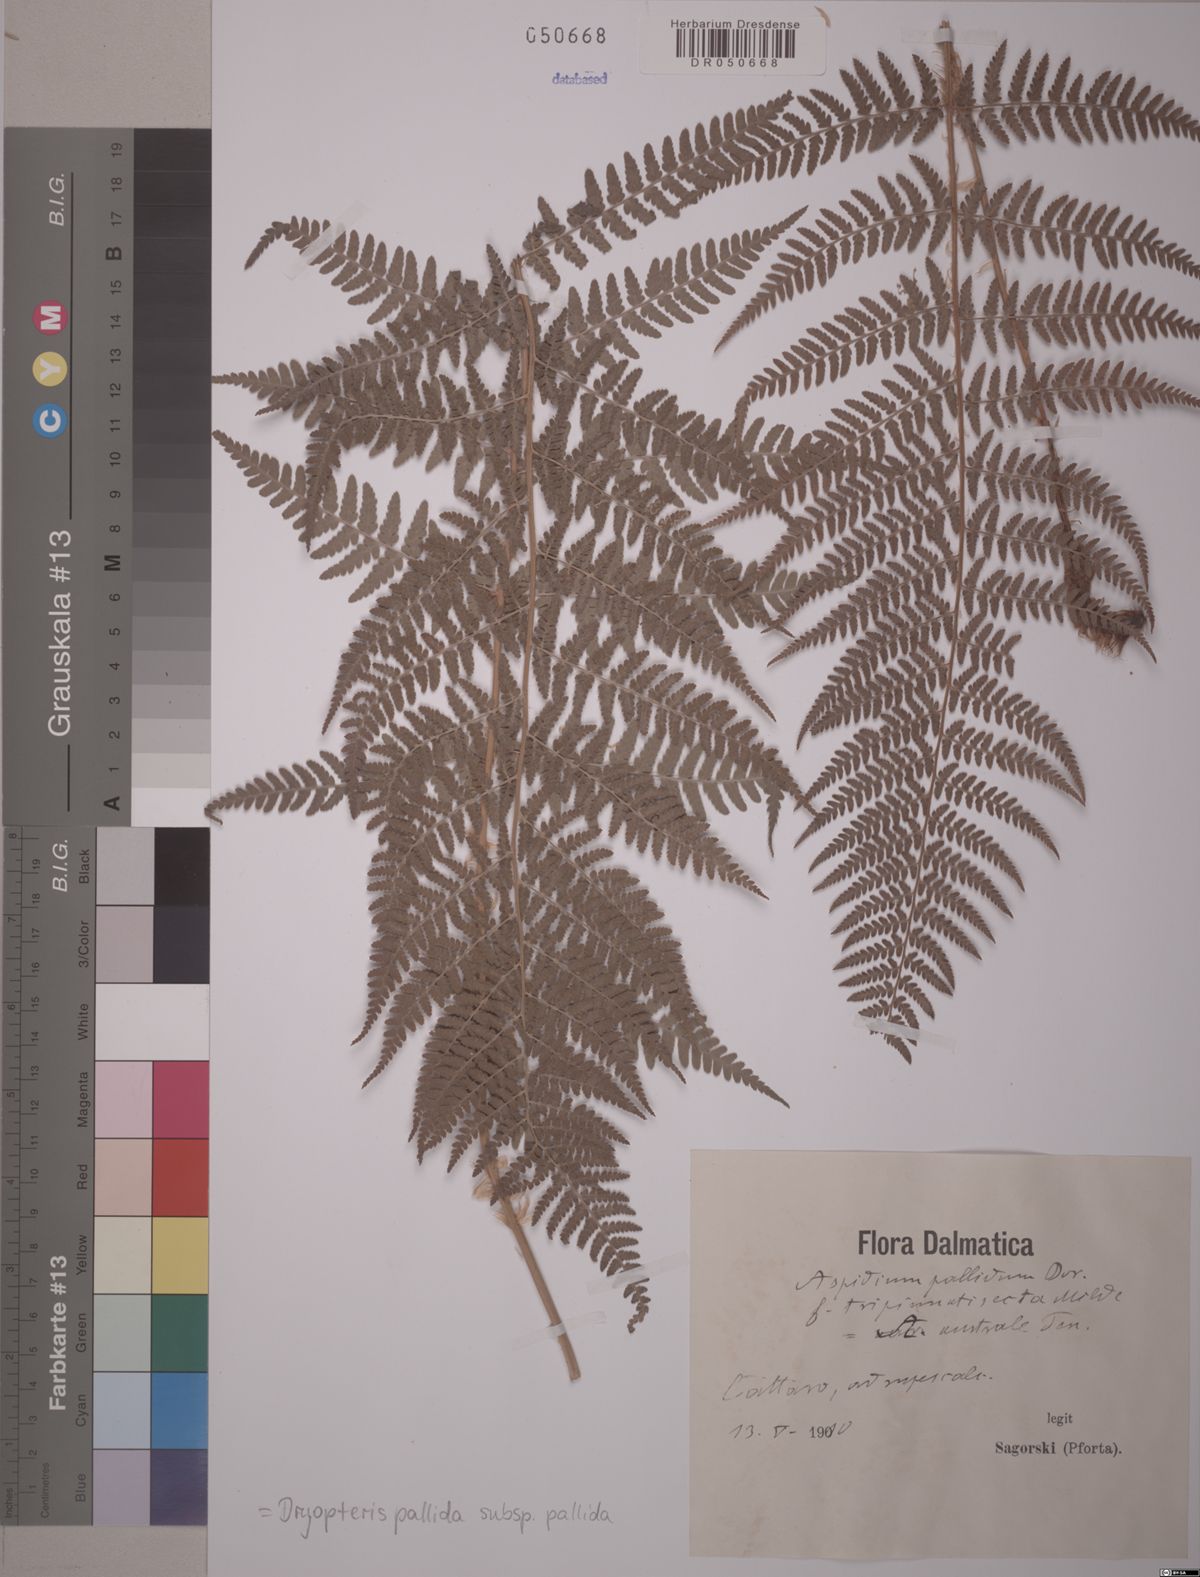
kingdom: Plantae
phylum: Tracheophyta
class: Polypodiopsida
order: Polypodiales
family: Dryopteridaceae
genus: Dryopteris
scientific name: Dryopteris pallida
